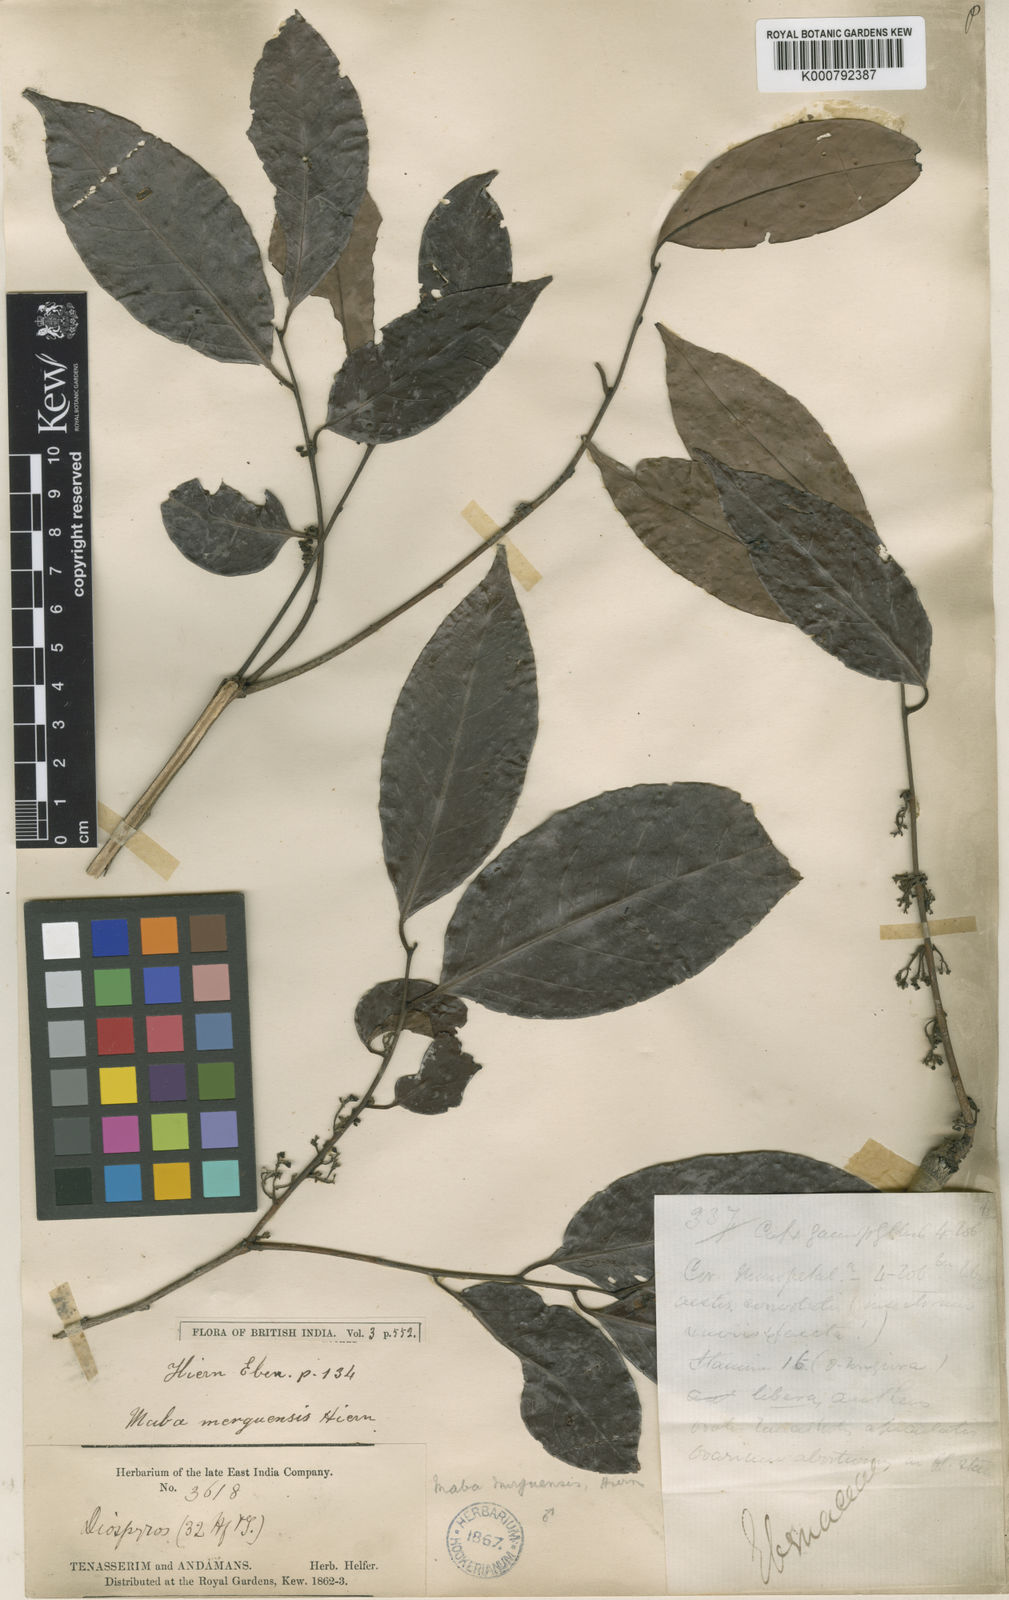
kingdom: Plantae
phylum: Tracheophyta
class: Magnoliopsida
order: Ericales
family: Ebenaceae
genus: Diospyros
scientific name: Diospyros venosa
